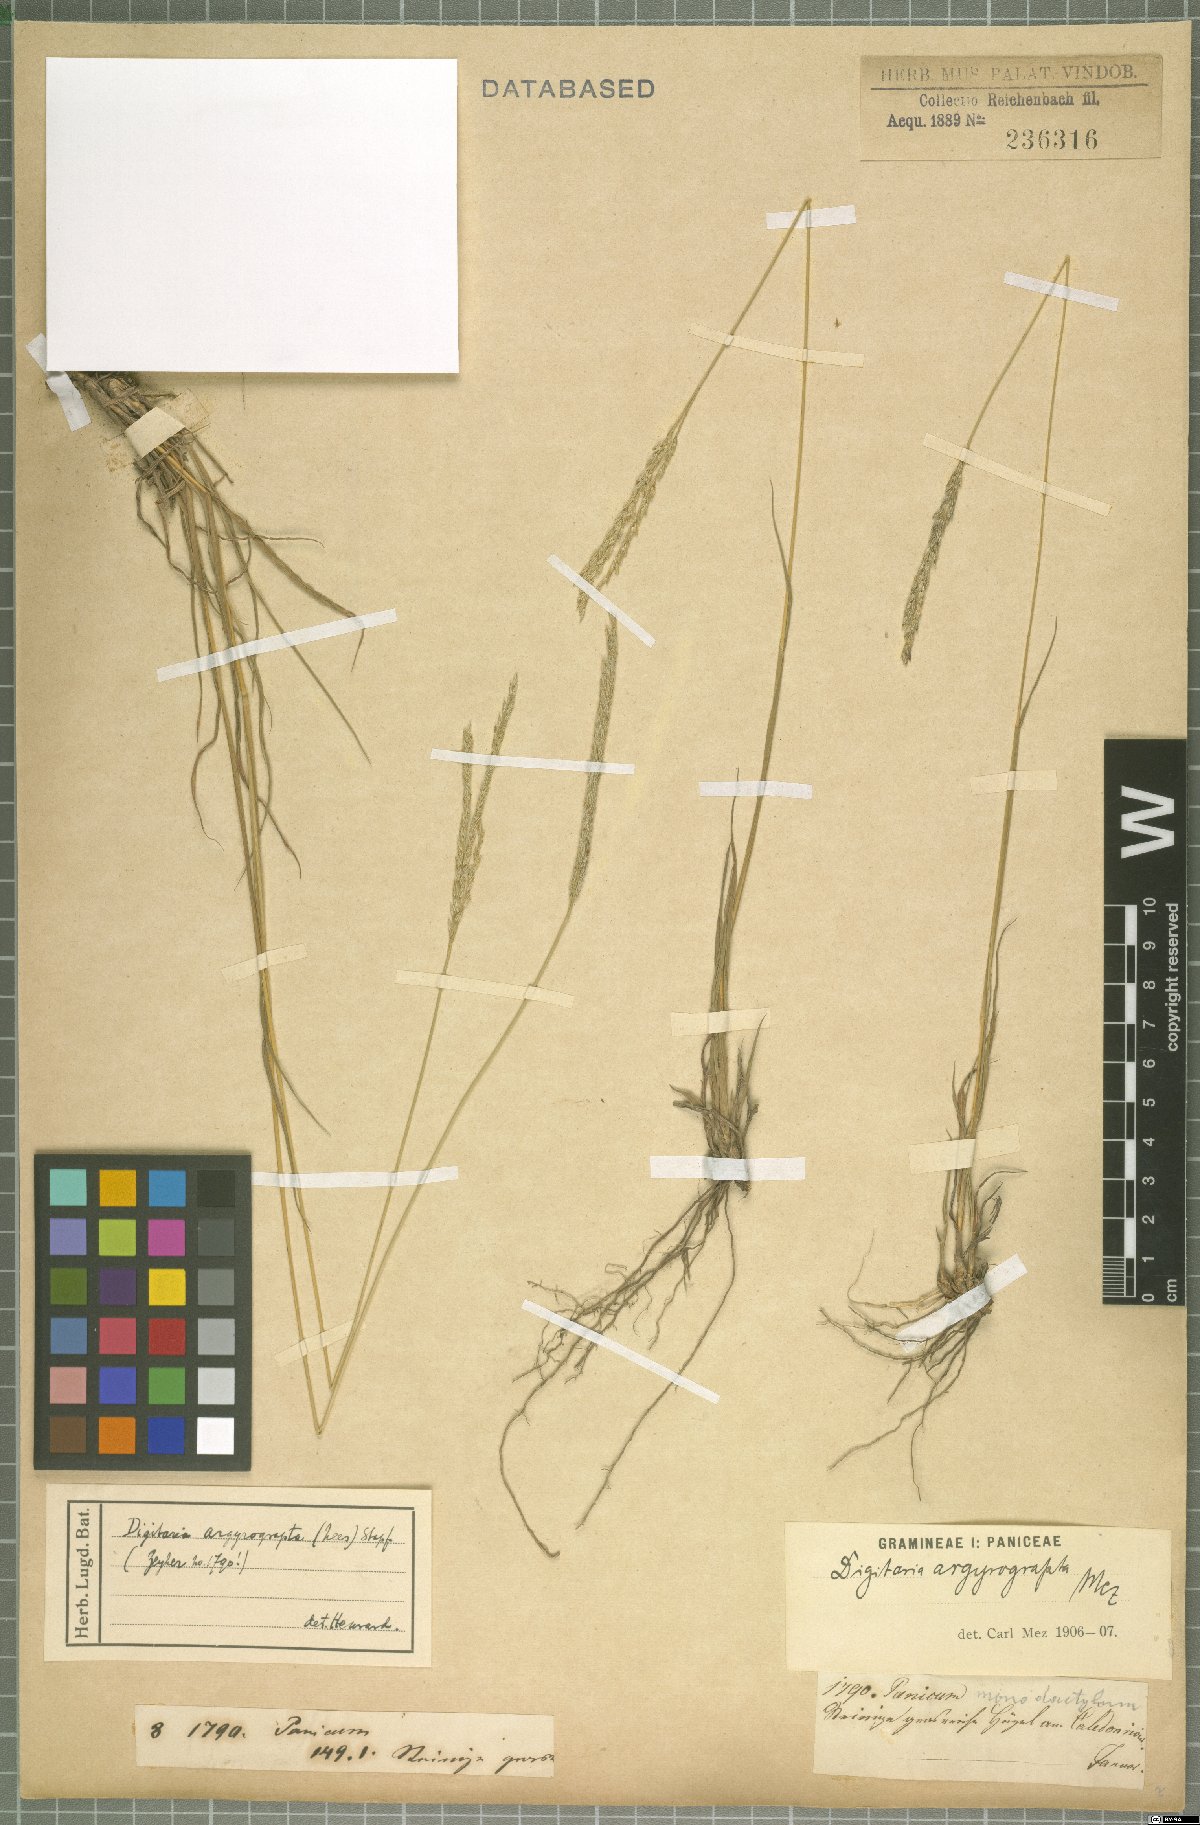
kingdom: Plantae
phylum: Tracheophyta
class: Liliopsida
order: Poales
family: Poaceae
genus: Digitaria
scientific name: Digitaria argyrograpta
